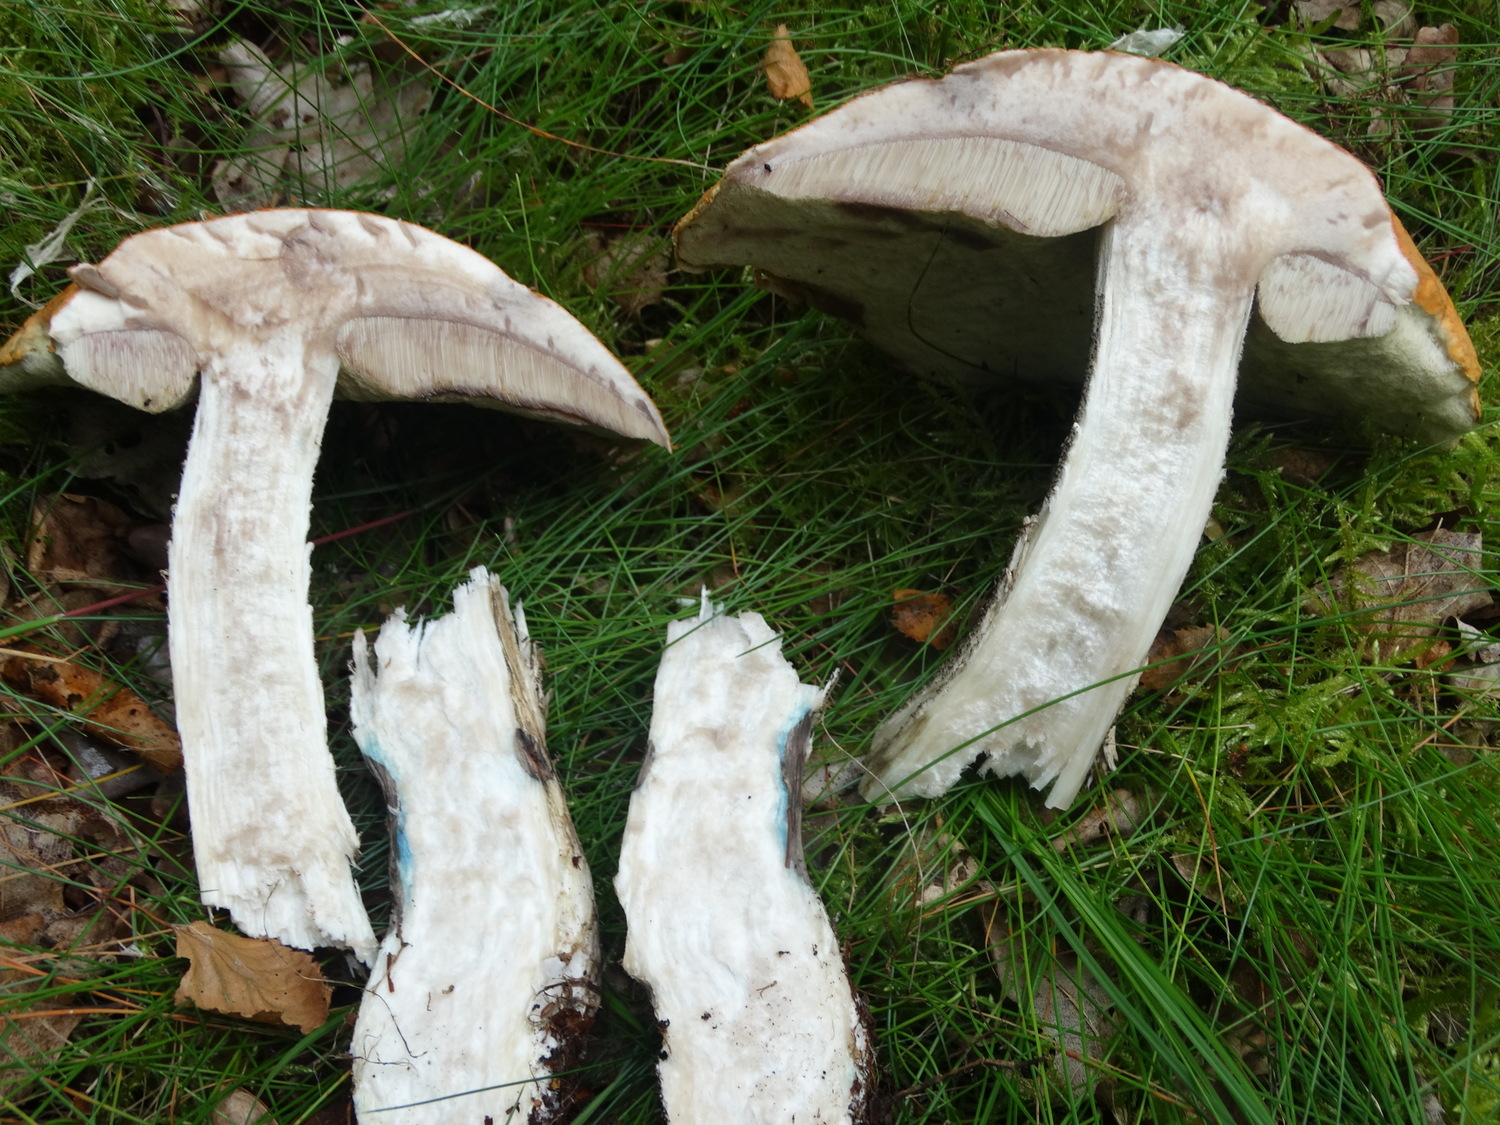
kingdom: Fungi
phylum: Basidiomycota
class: Agaricomycetes
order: Boletales
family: Boletaceae
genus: Leccinum
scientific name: Leccinum versipelle
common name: orange skælrørhat
